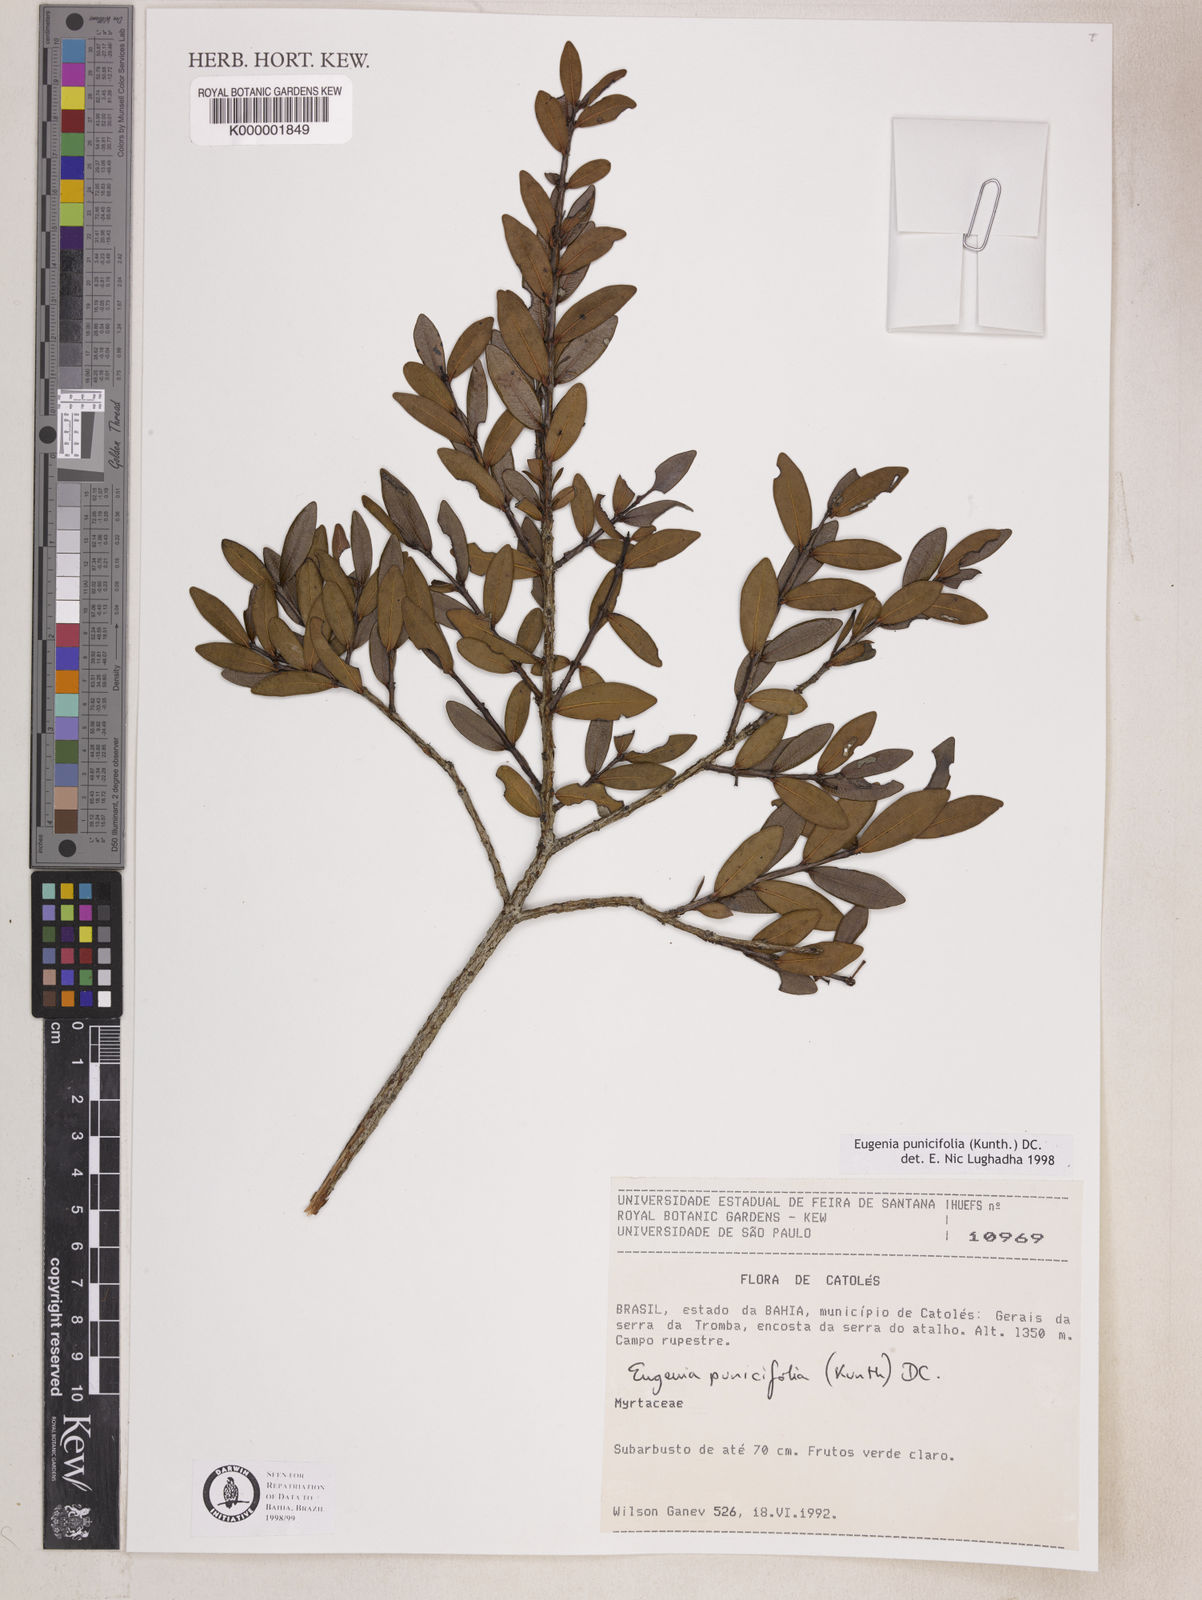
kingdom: Plantae
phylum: Tracheophyta
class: Magnoliopsida
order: Myrtales
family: Myrtaceae
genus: Eugenia
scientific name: Eugenia punicifolia
